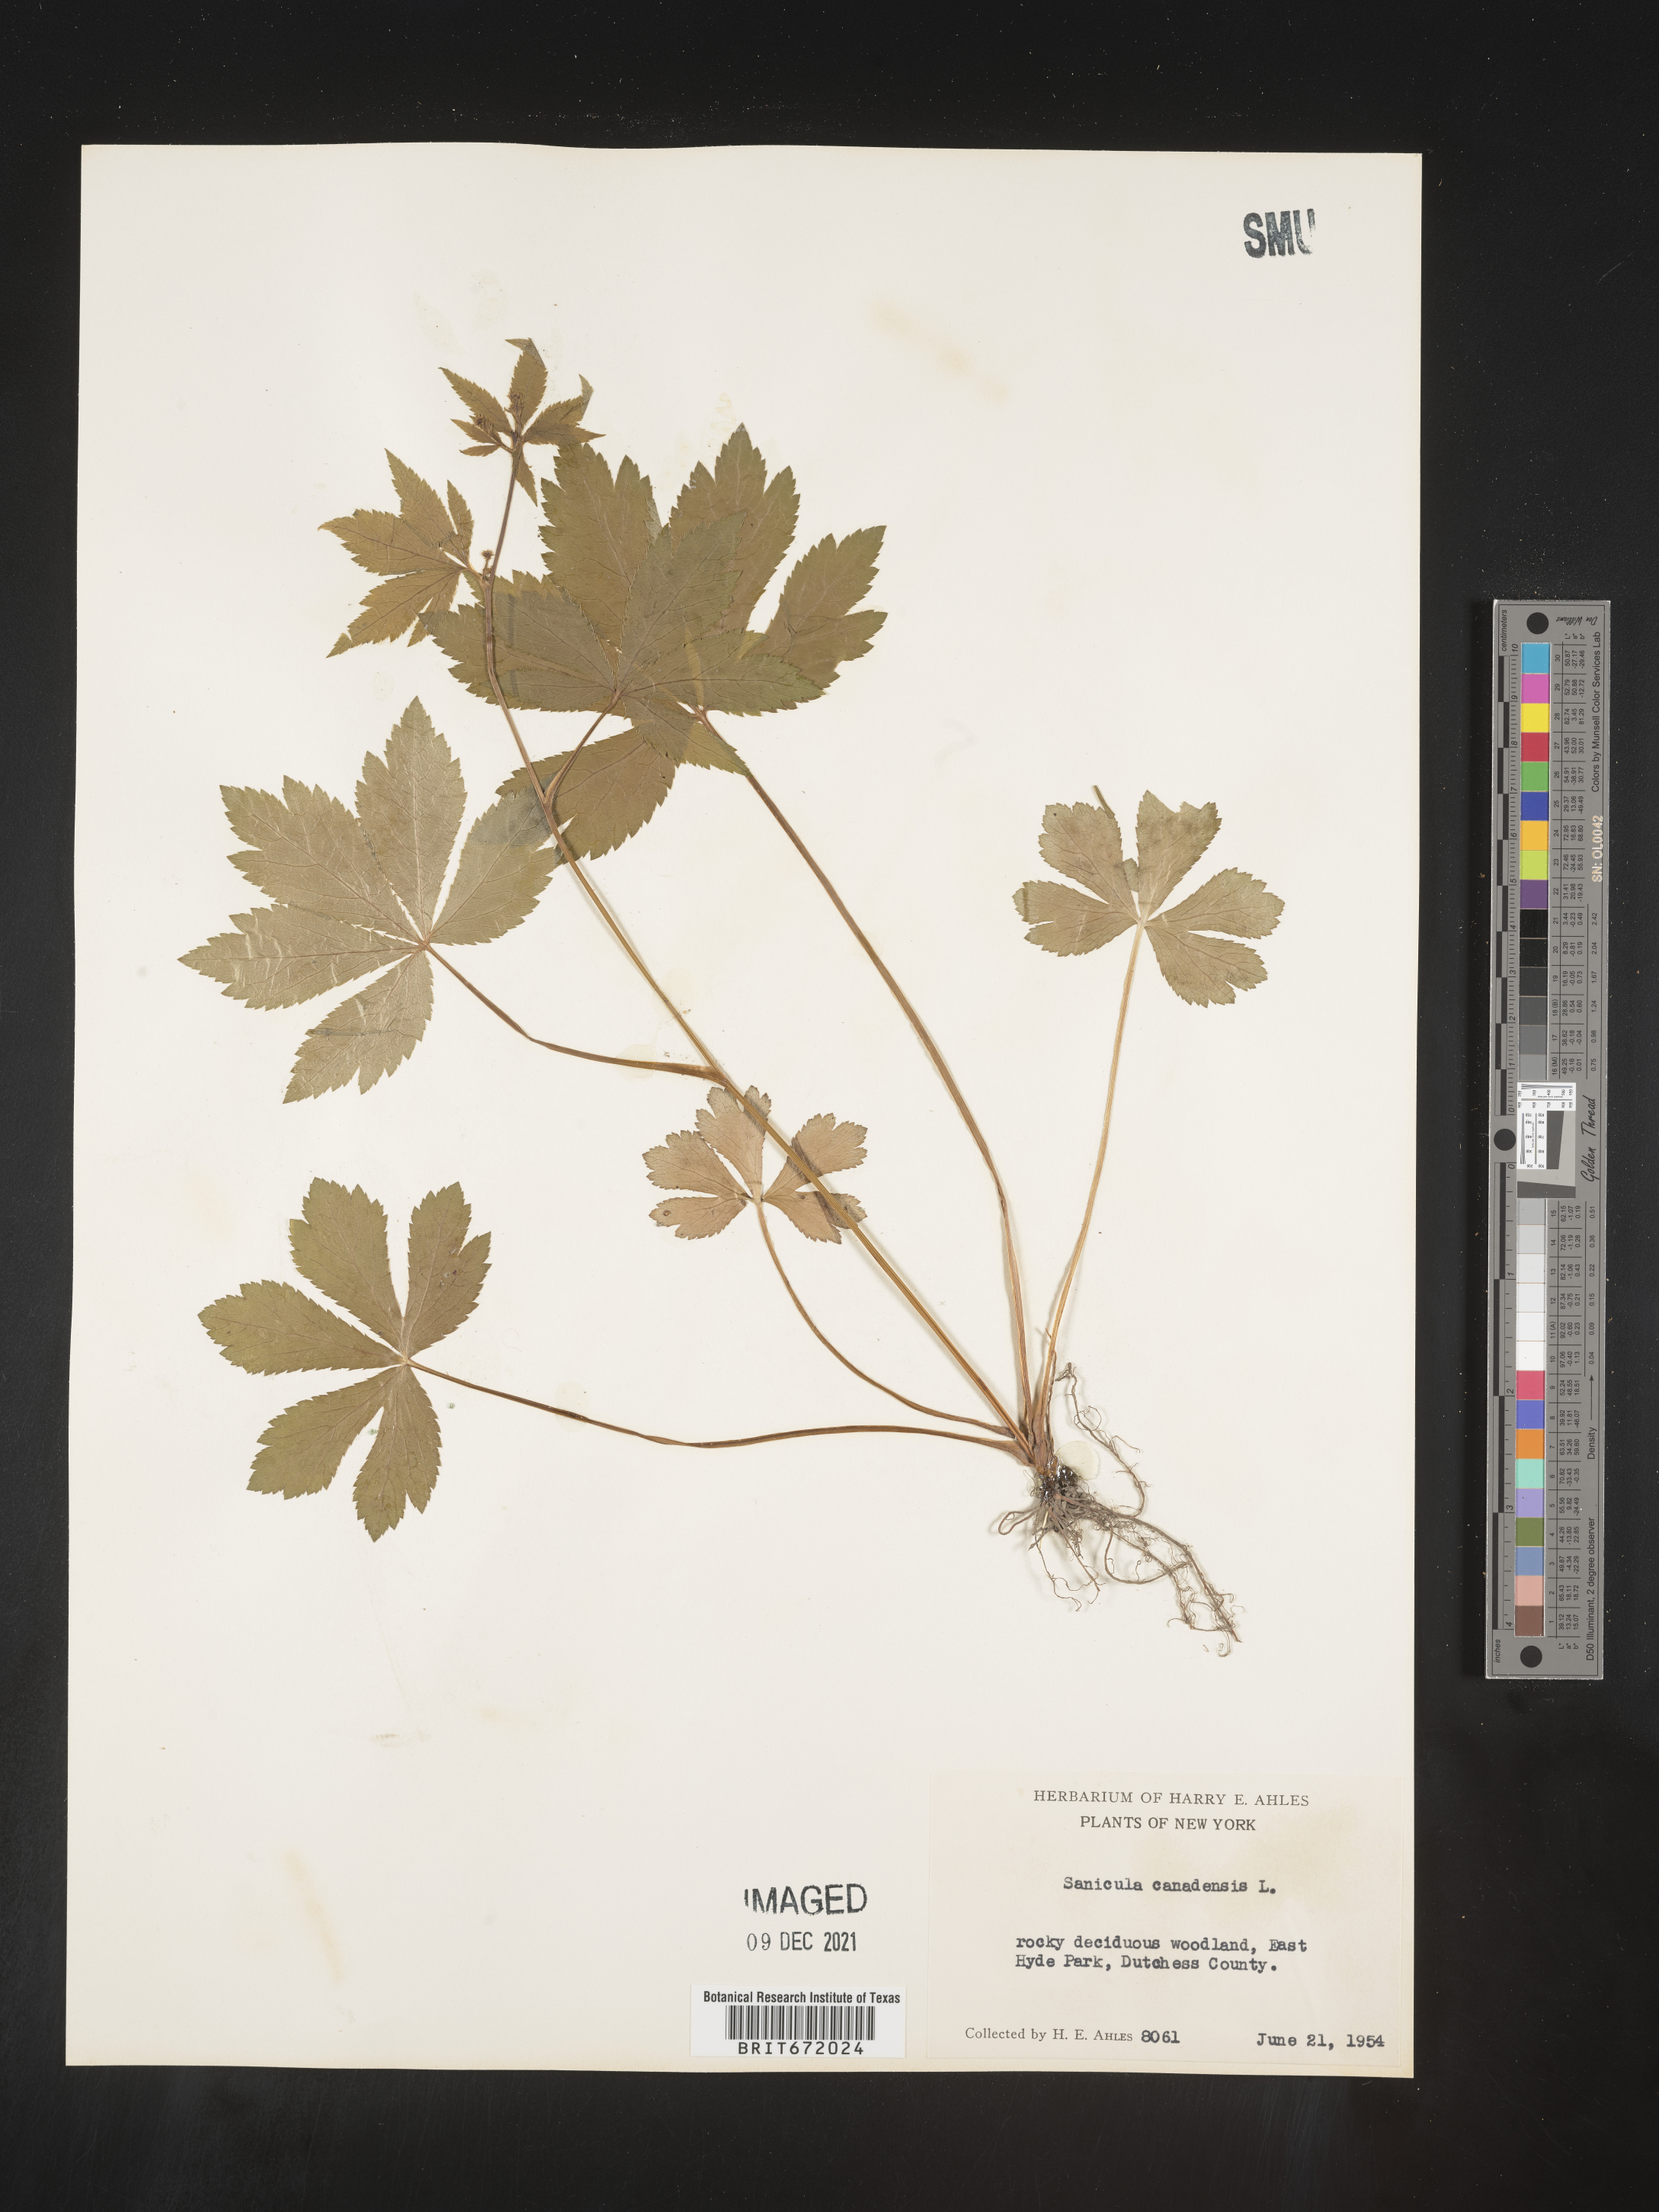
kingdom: Plantae
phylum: Tracheophyta
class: Magnoliopsida
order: Apiales
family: Apiaceae
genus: Sanicula
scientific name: Sanicula canadensis
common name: Canada sanicle
